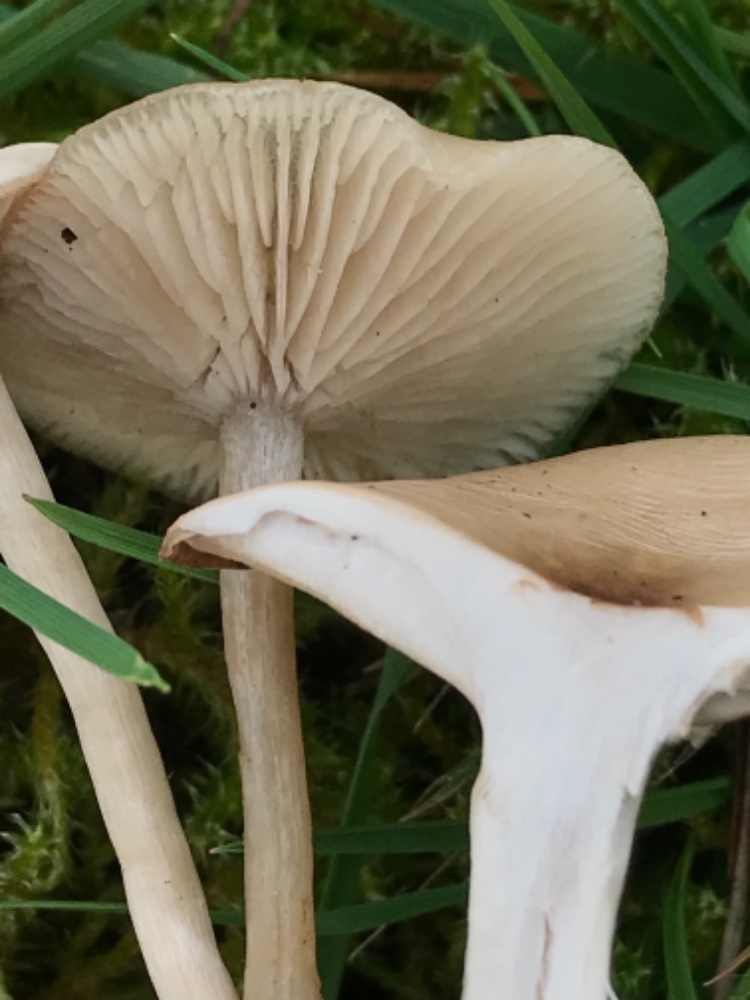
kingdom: Fungi
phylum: Basidiomycota
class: Agaricomycetes
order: Agaricales
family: Tricholomataceae
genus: Clitocybe
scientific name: Clitocybe fragrans
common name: vellugtende tragthat
